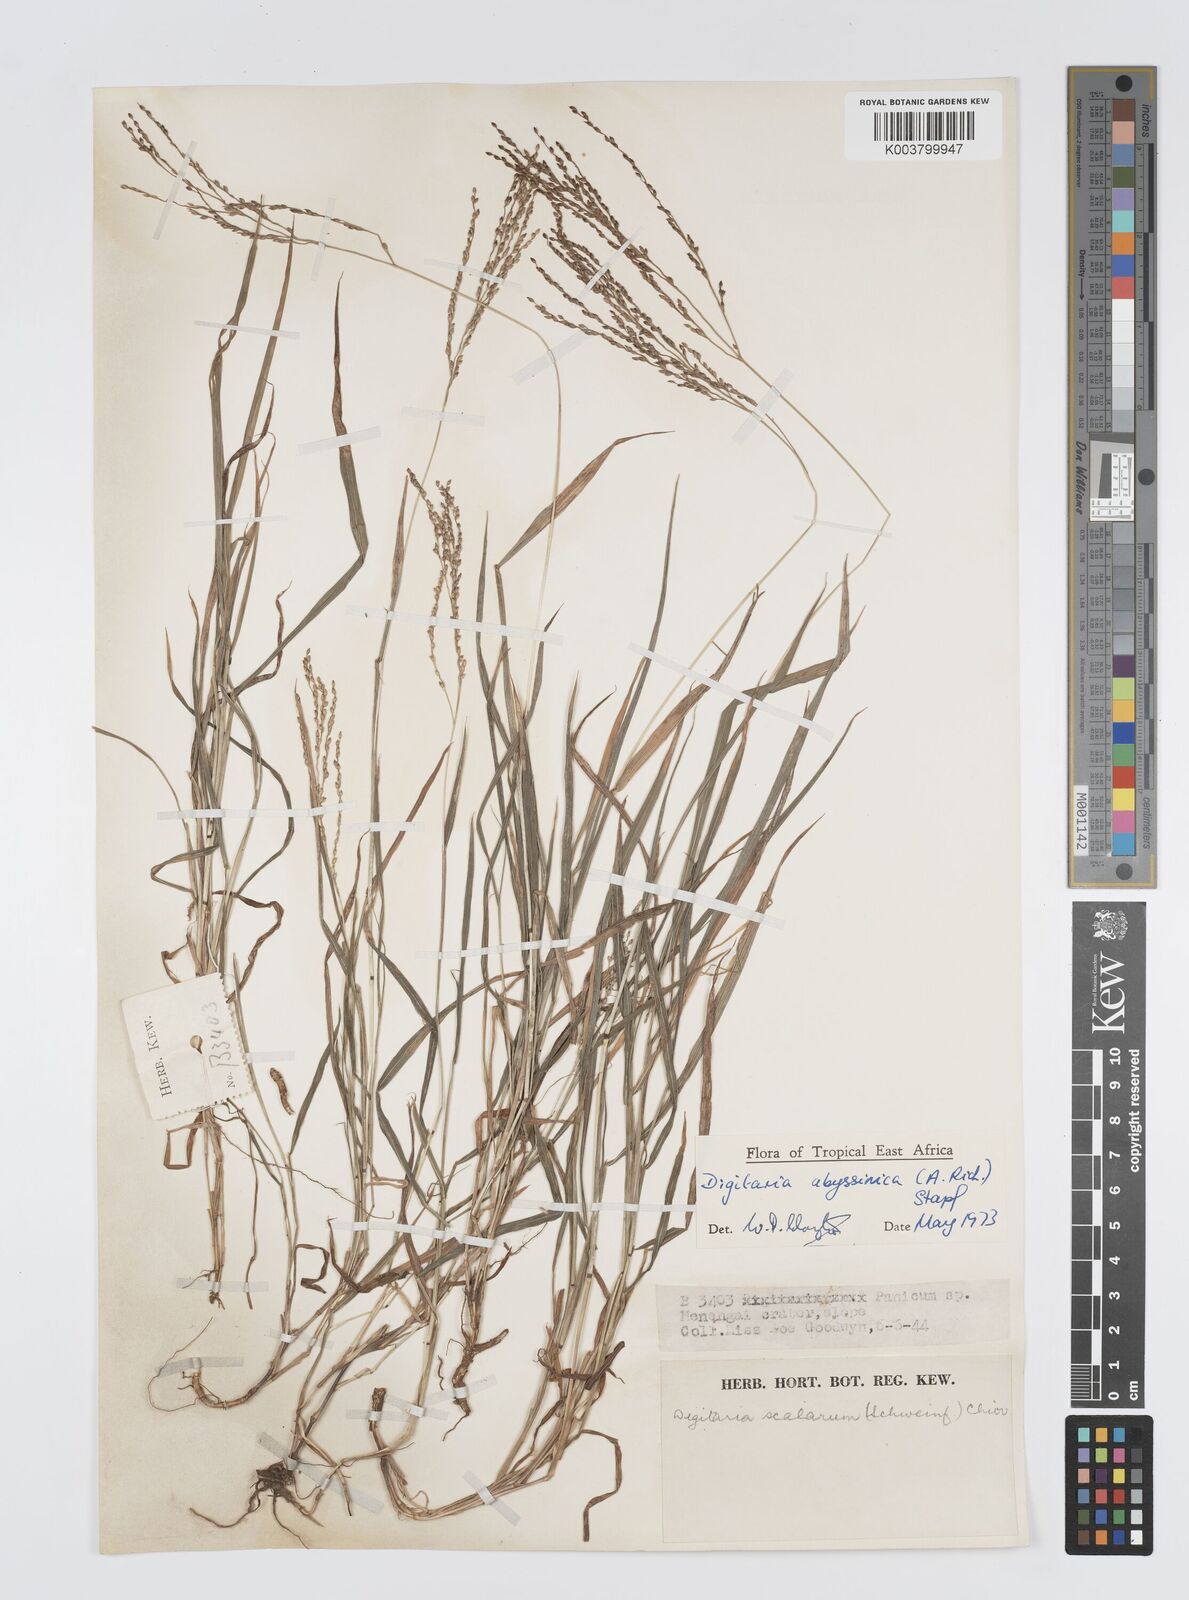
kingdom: Plantae
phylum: Tracheophyta
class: Liliopsida
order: Poales
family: Poaceae
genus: Digitaria
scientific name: Digitaria abyssinica
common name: African couchgrass
